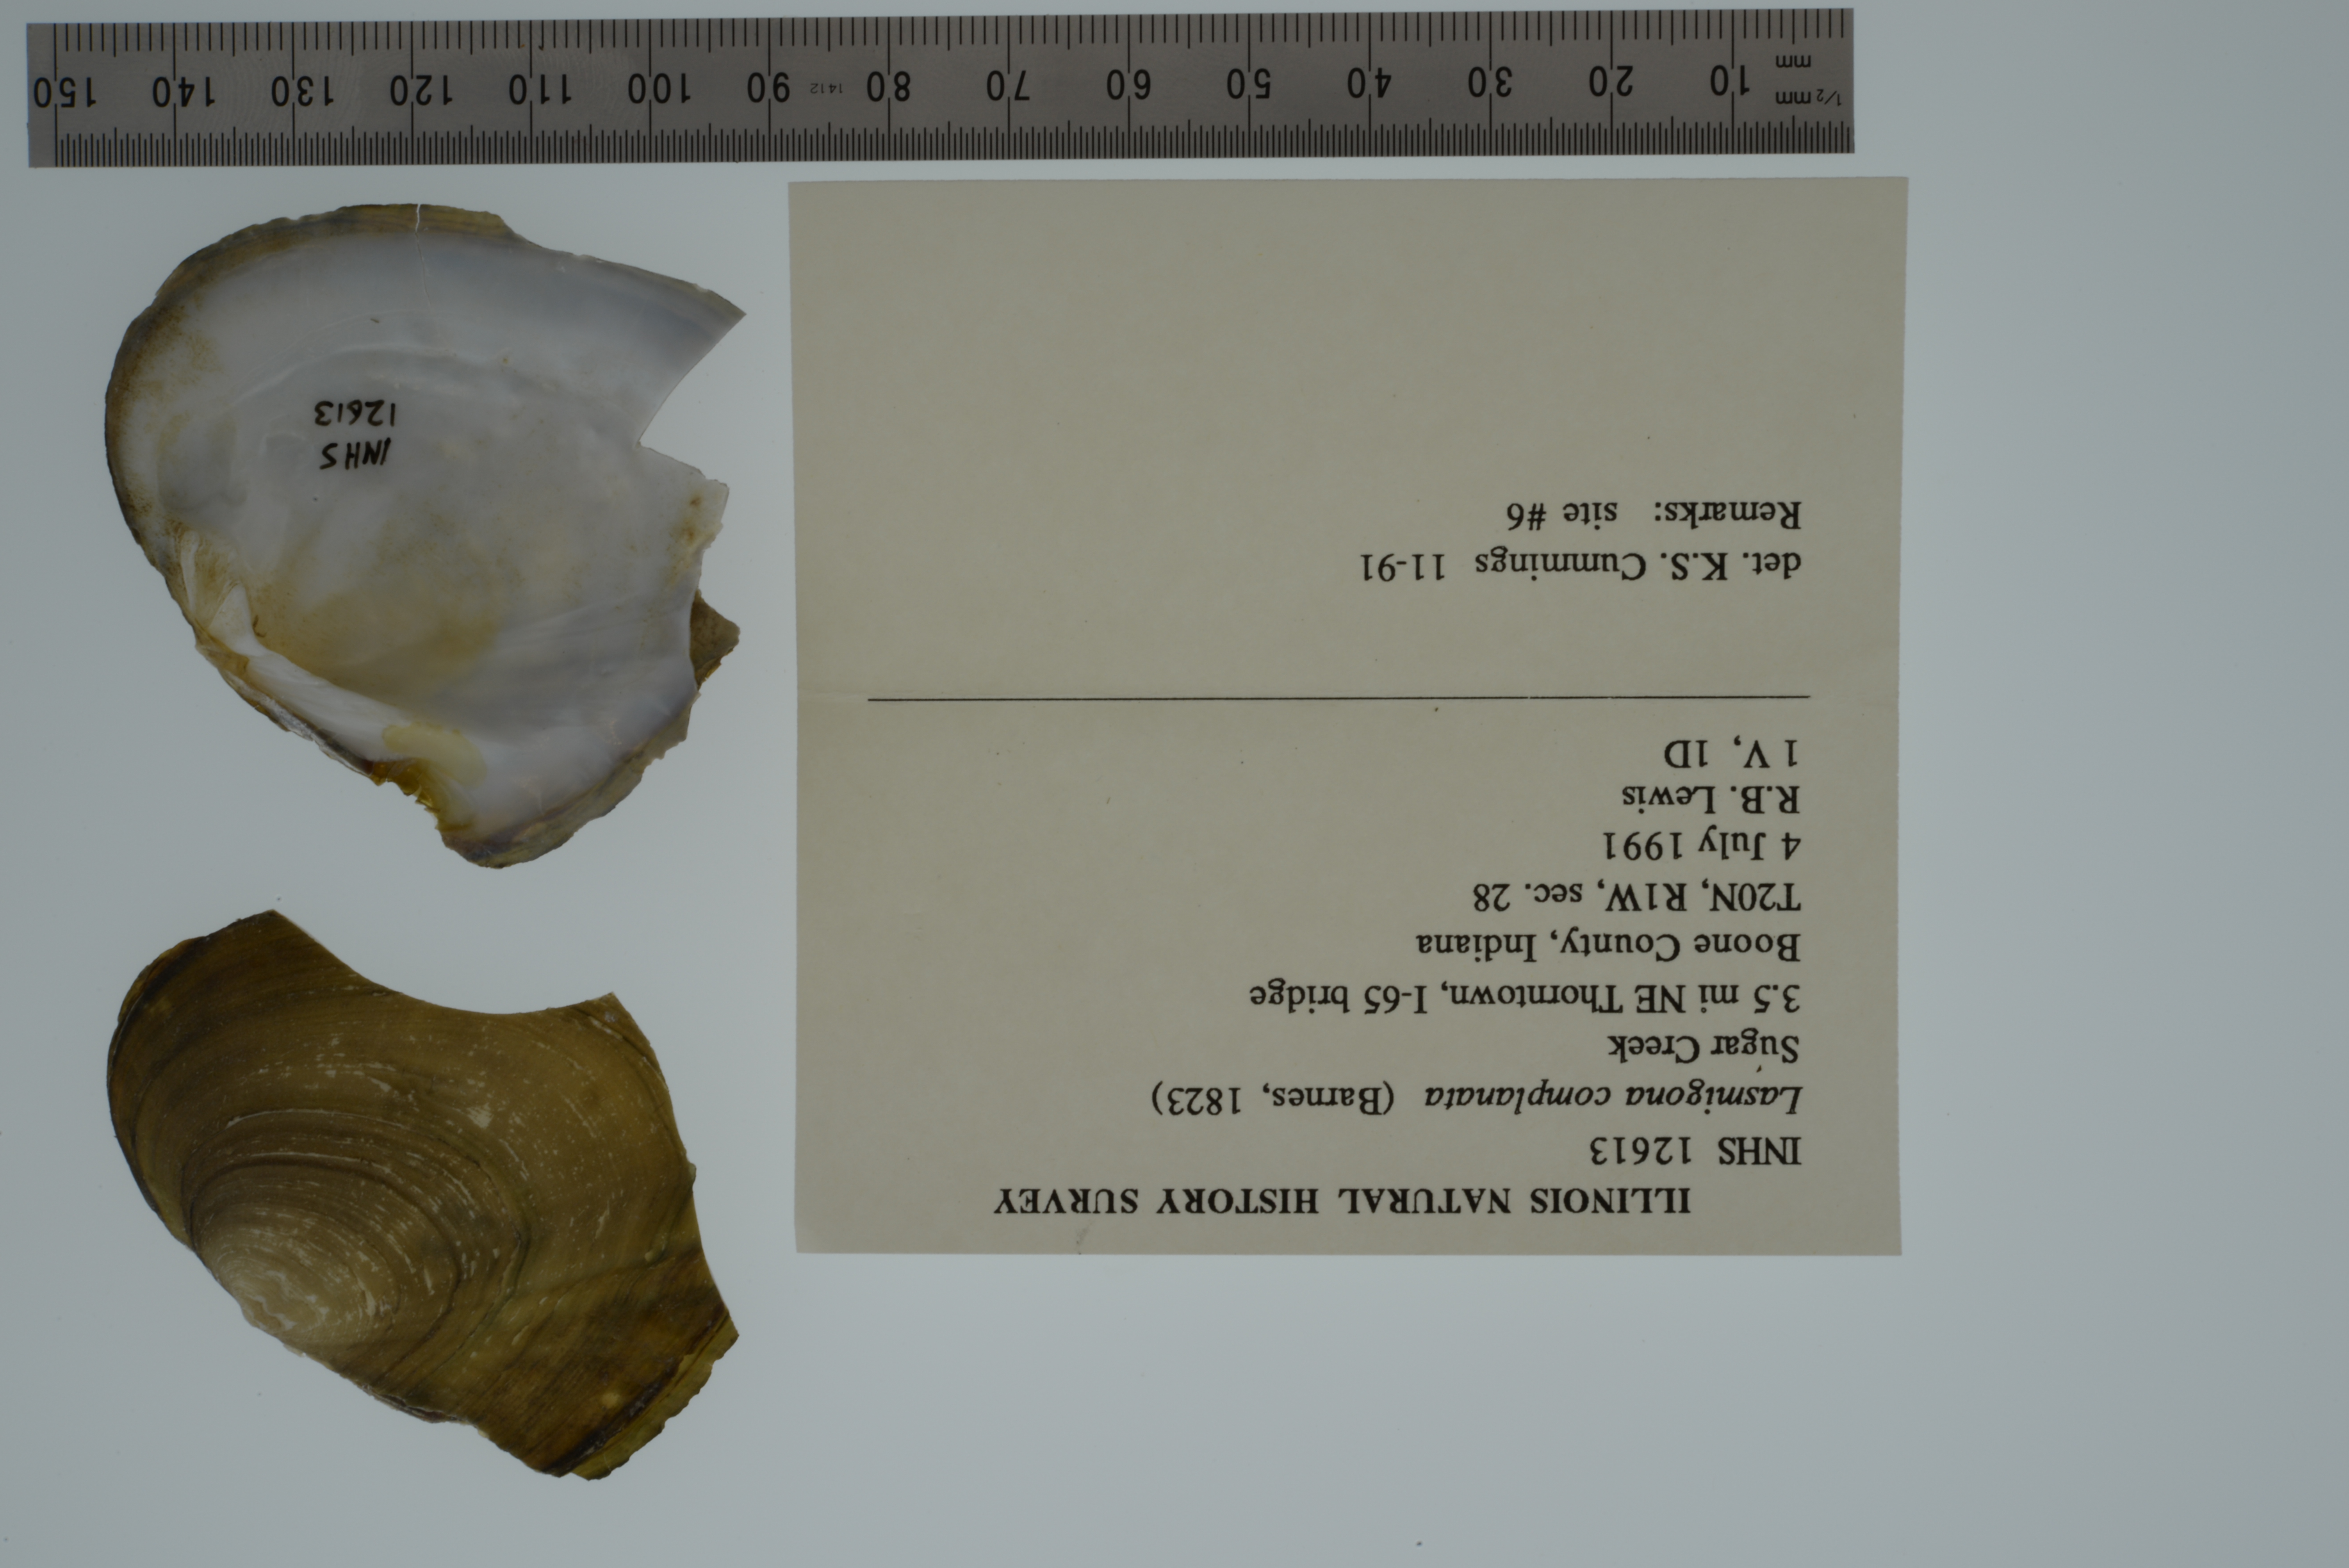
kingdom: Animalia
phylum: Mollusca
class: Bivalvia
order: Unionida
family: Unionidae
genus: Lasmigona
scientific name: Lasmigona complanata
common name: White heelsplitter
